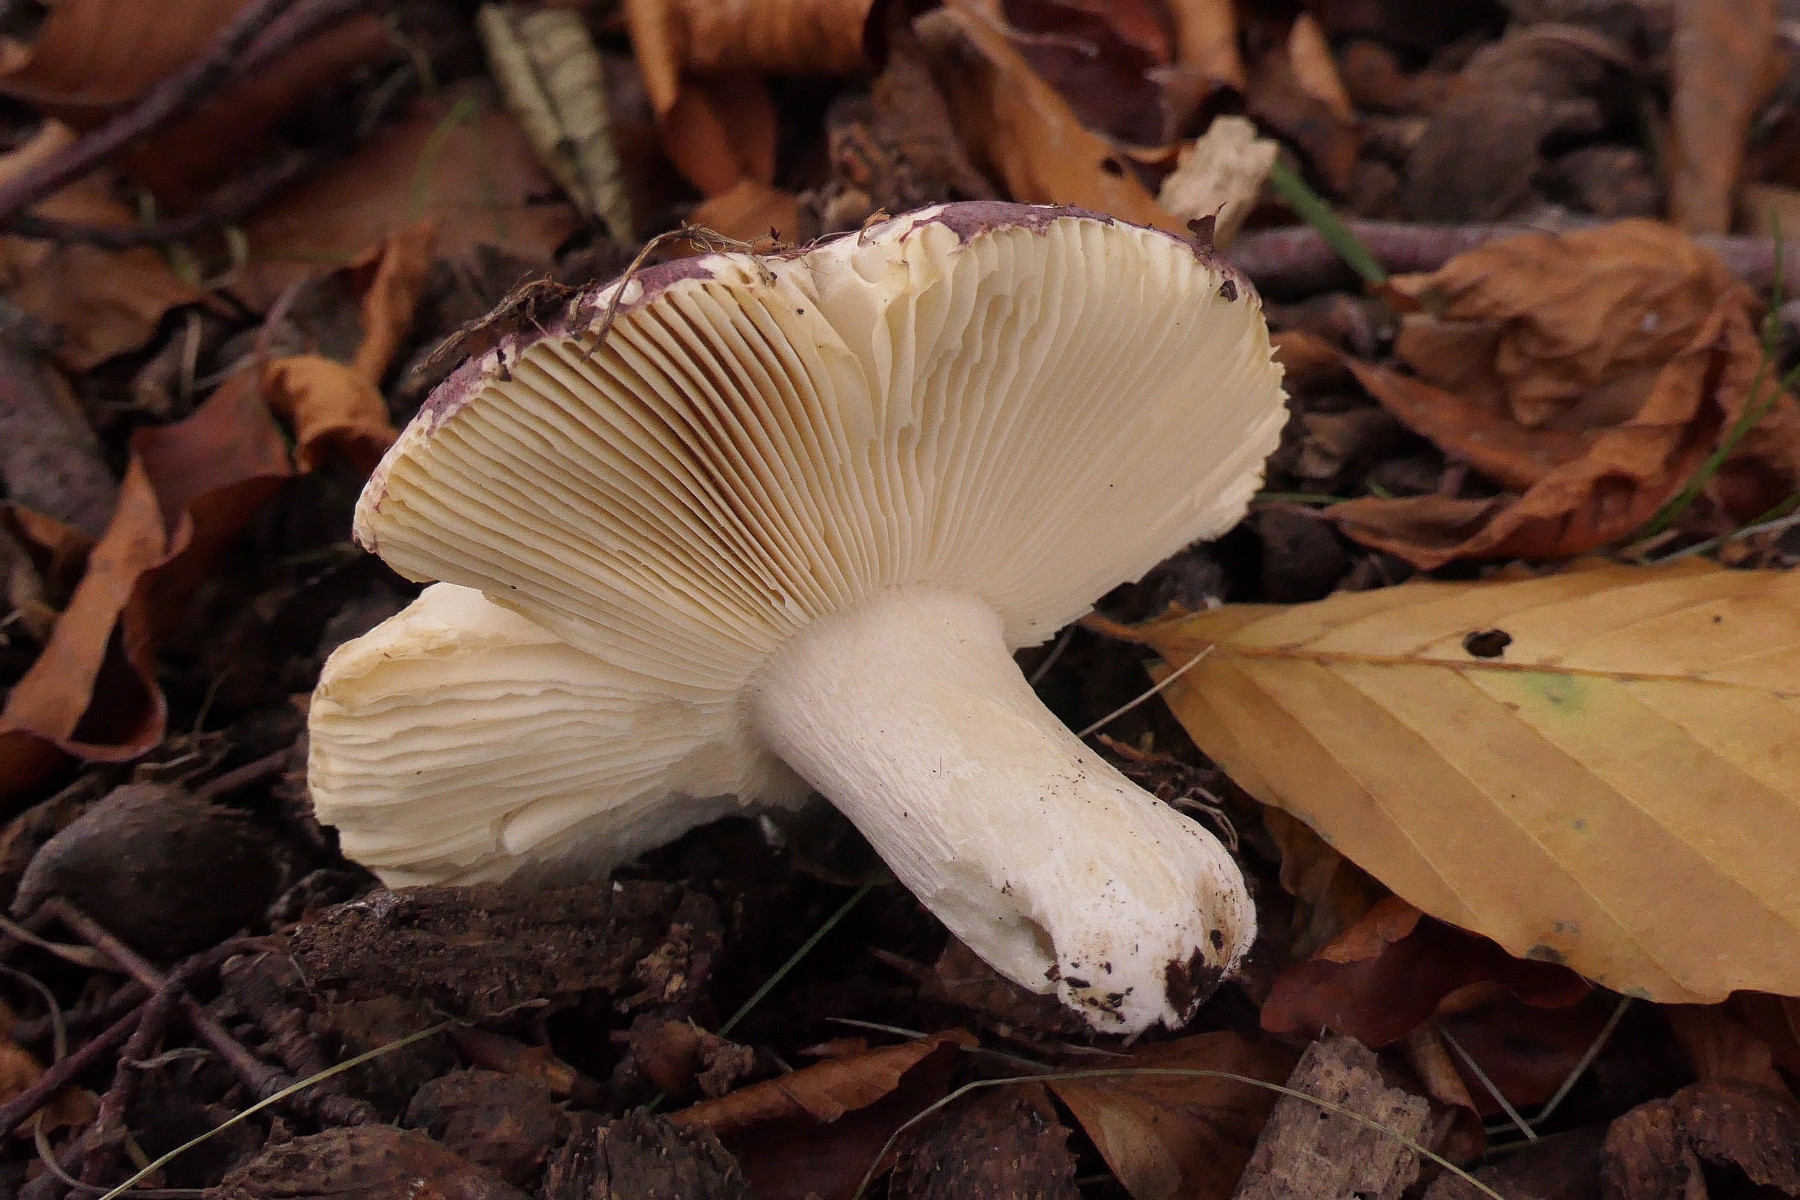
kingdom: Fungi
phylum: Basidiomycota
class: Agaricomycetes
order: Russulales
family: Russulaceae
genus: Russula
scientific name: Russula curtipes
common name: kortstokket skørhat
